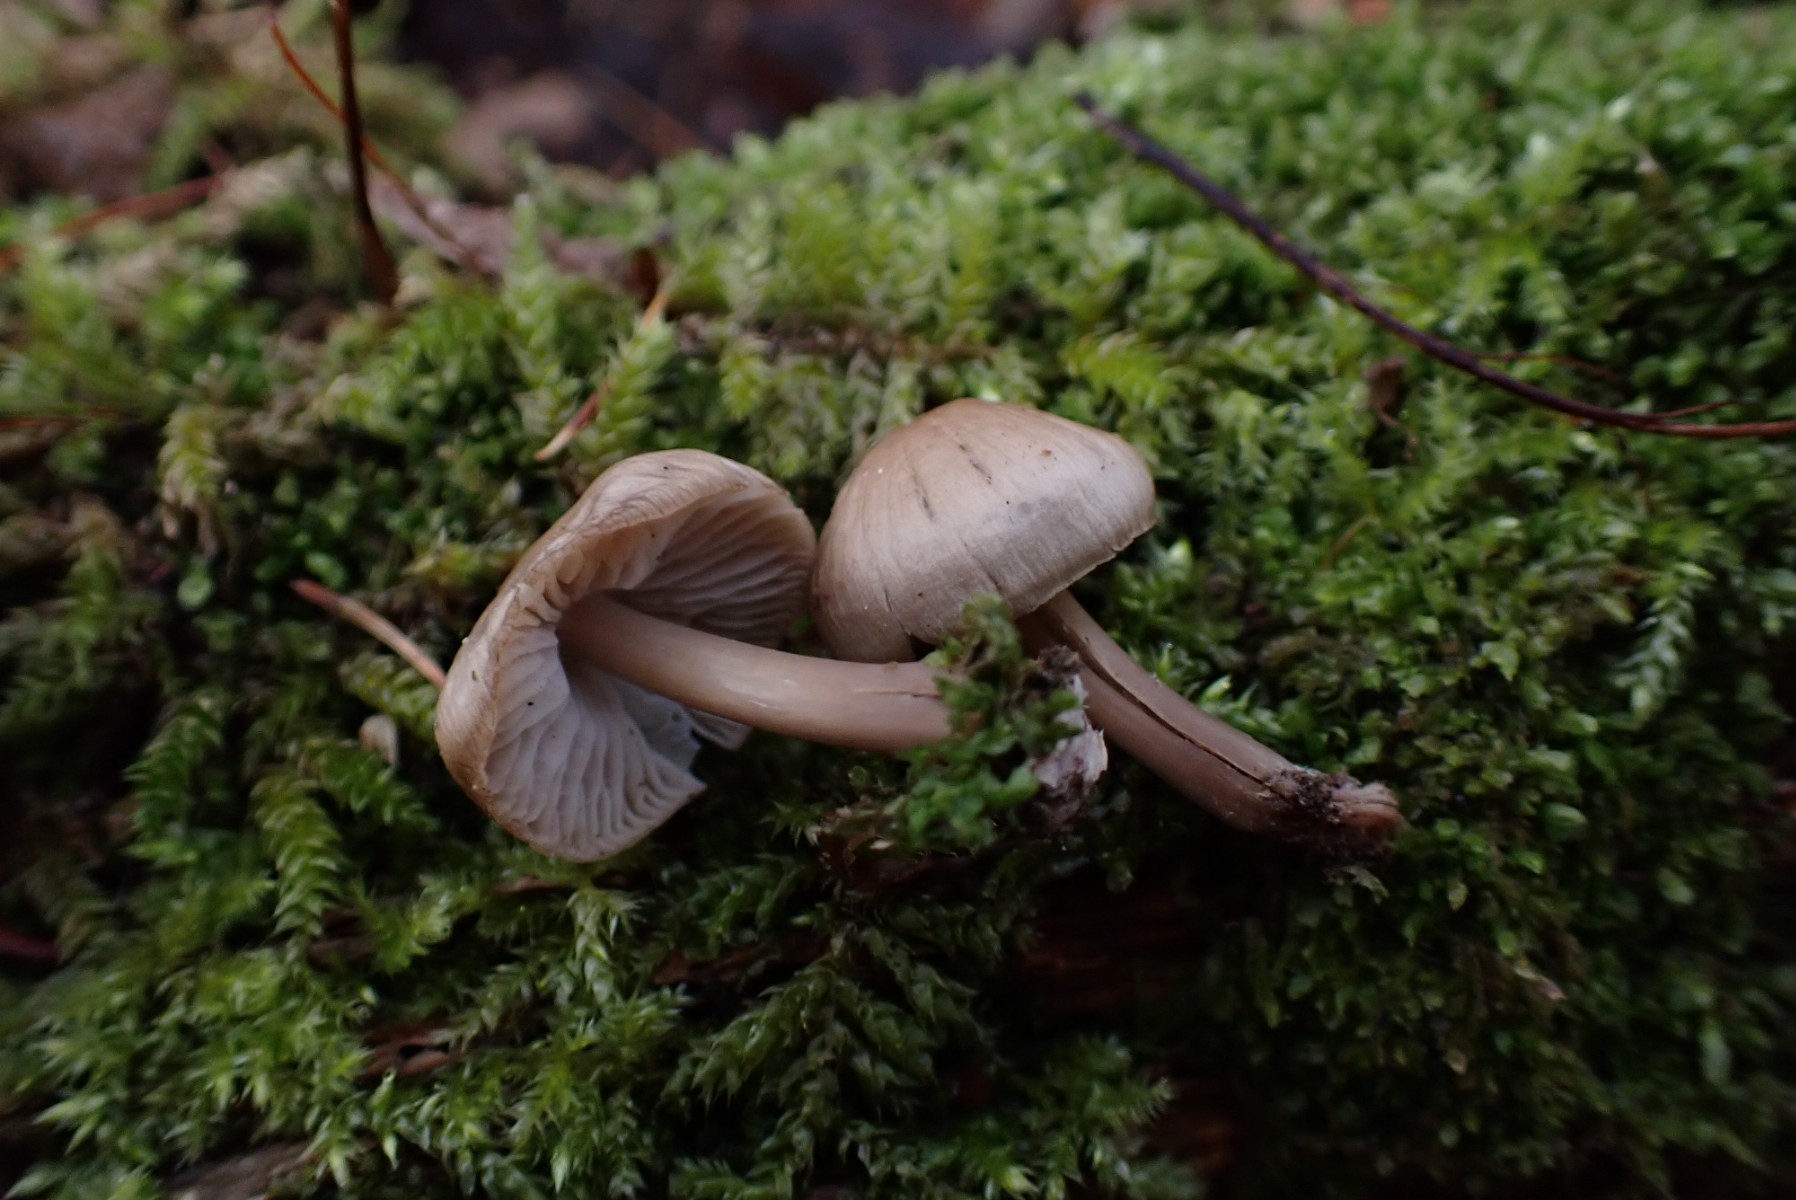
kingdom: Fungi
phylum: Basidiomycota
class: Agaricomycetes
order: Agaricales
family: Mycenaceae
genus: Mycena
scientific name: Mycena galericulata
